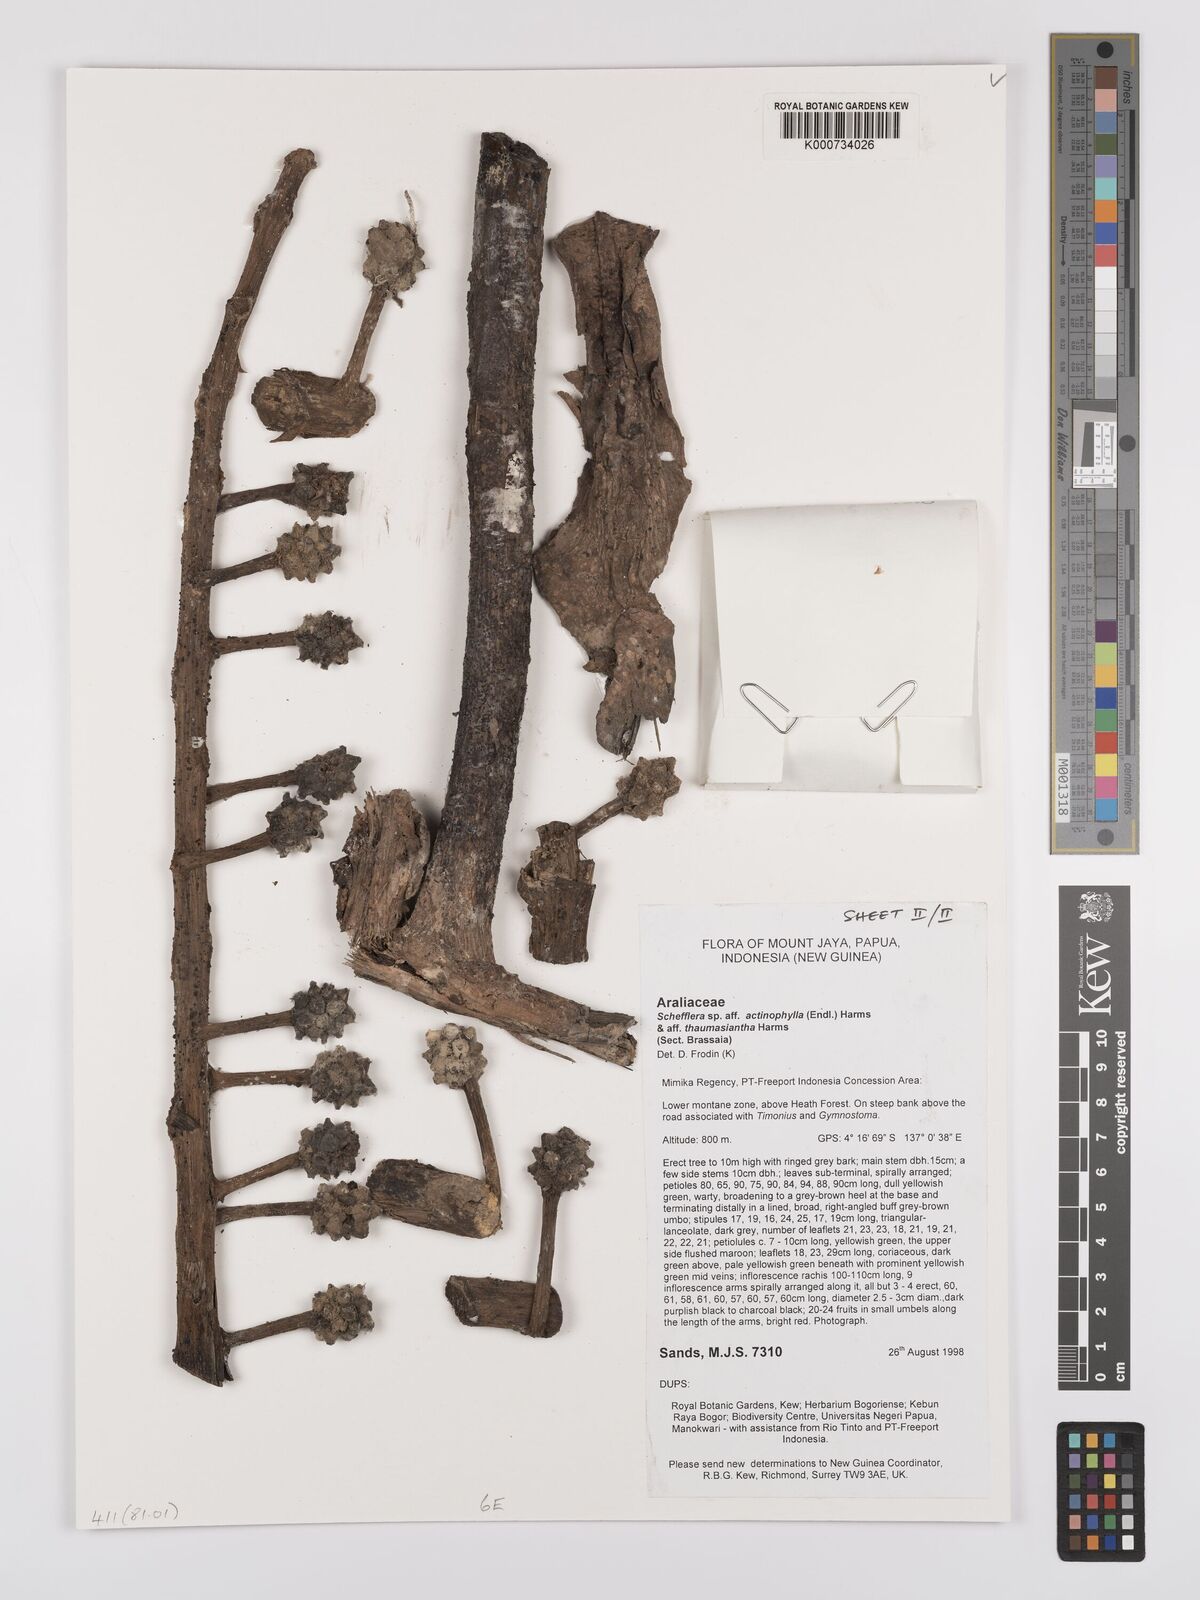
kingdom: Plantae
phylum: Tracheophyta
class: Magnoliopsida
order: Santalales
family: Amphorogynaceae
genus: Dendrotrophe
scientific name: Dendrotrophe varians
